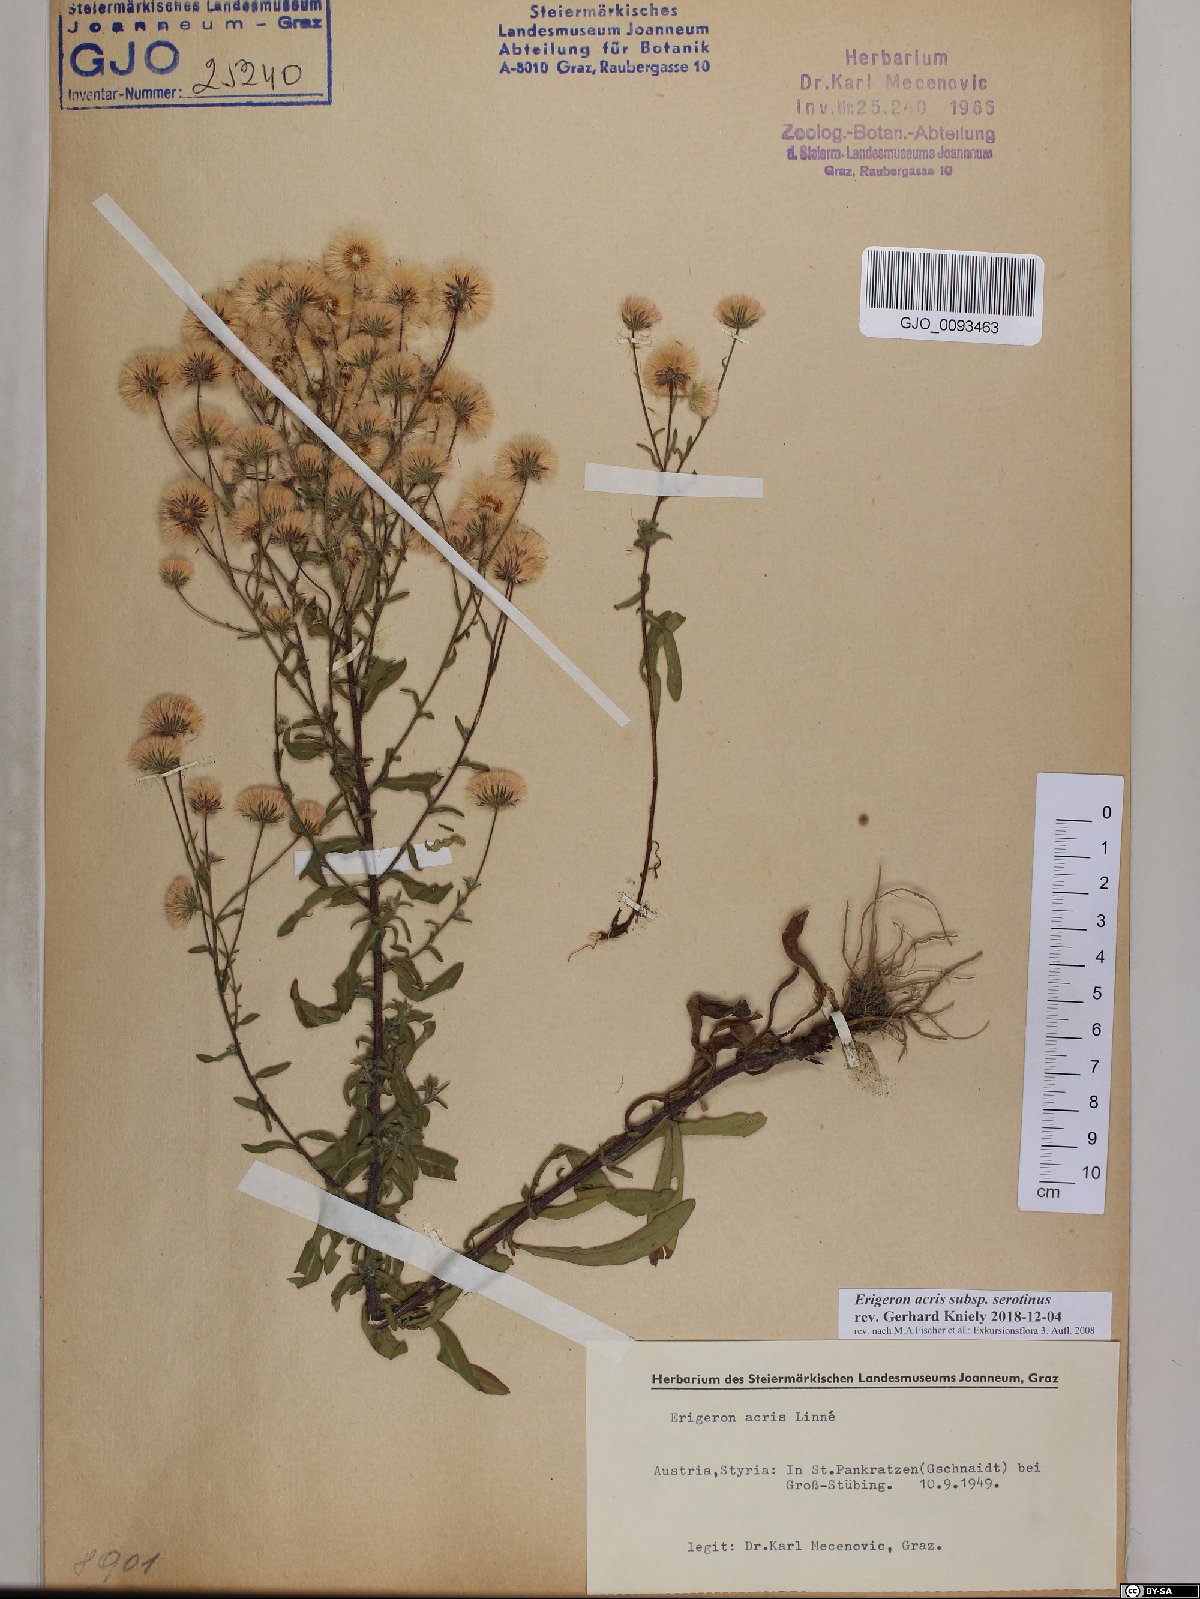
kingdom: Plantae
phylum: Tracheophyta
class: Magnoliopsida
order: Asterales
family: Asteraceae
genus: Erigeron
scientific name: Erigeron muralis
